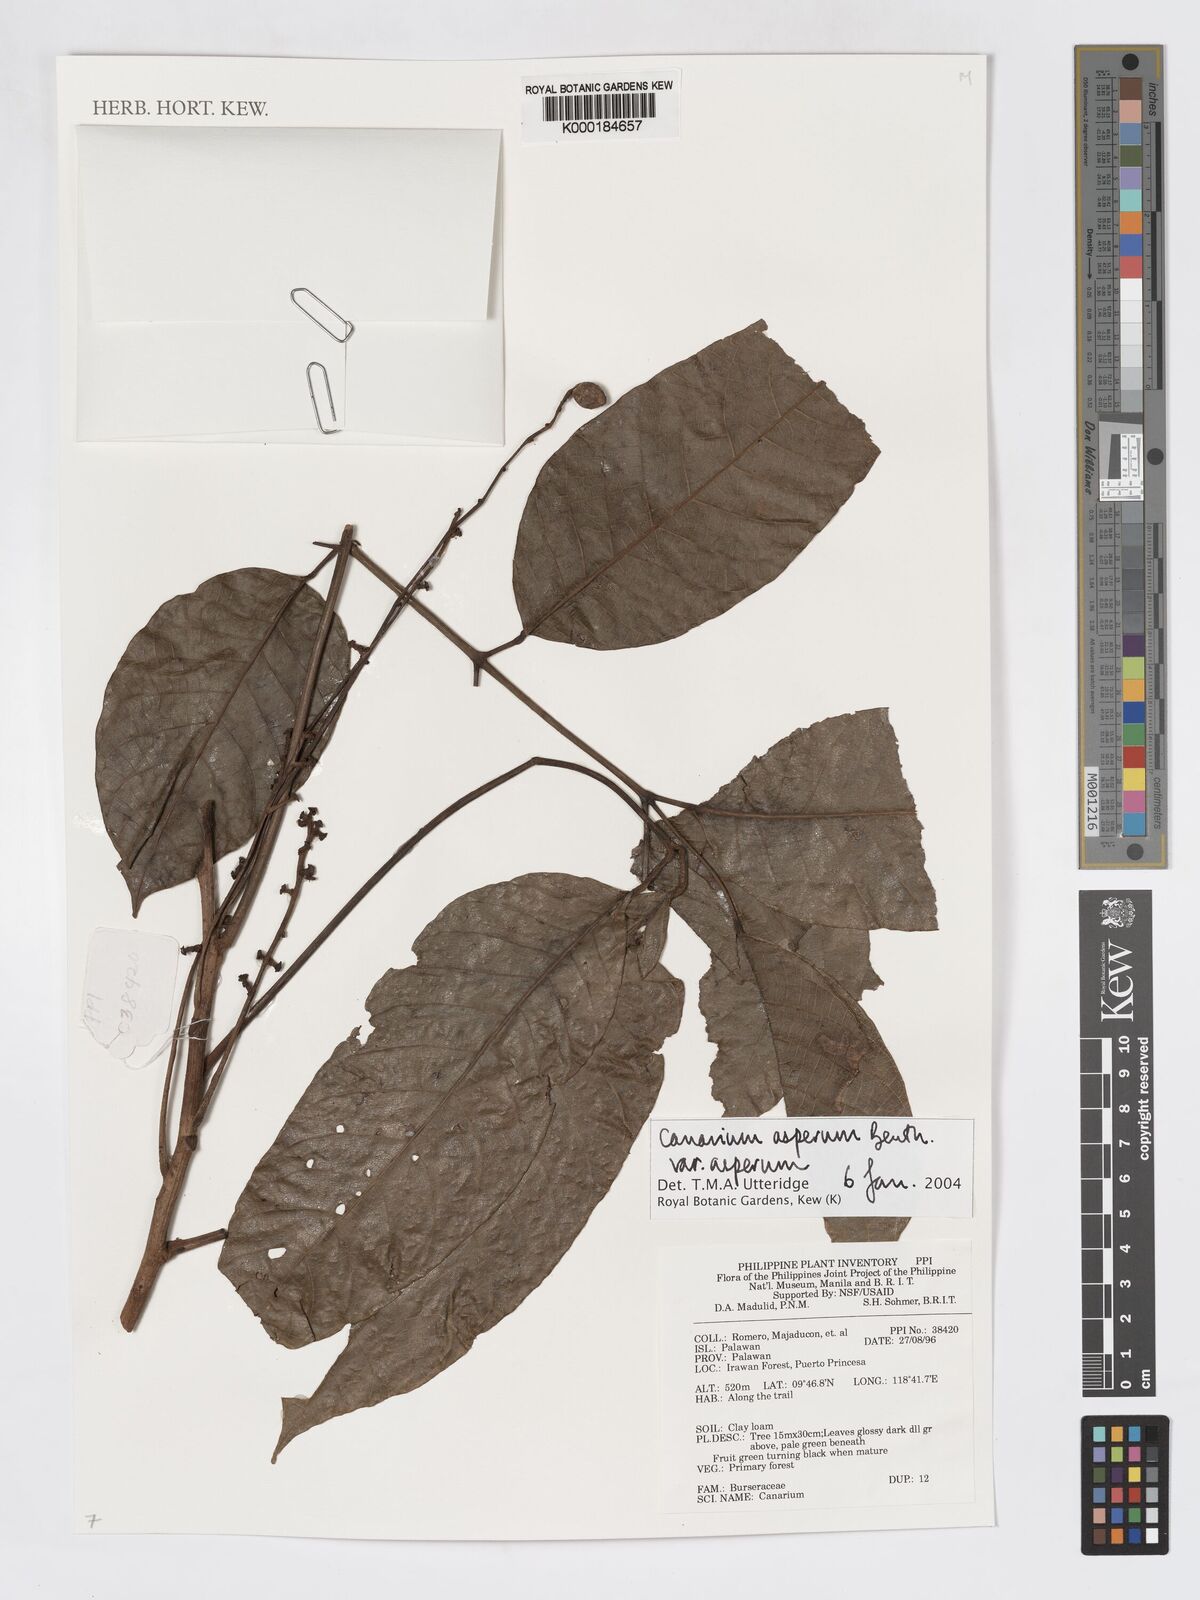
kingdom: Plantae
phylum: Tracheophyta
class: Magnoliopsida
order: Sapindales
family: Burseraceae
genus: Canarium
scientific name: Canarium asperum
